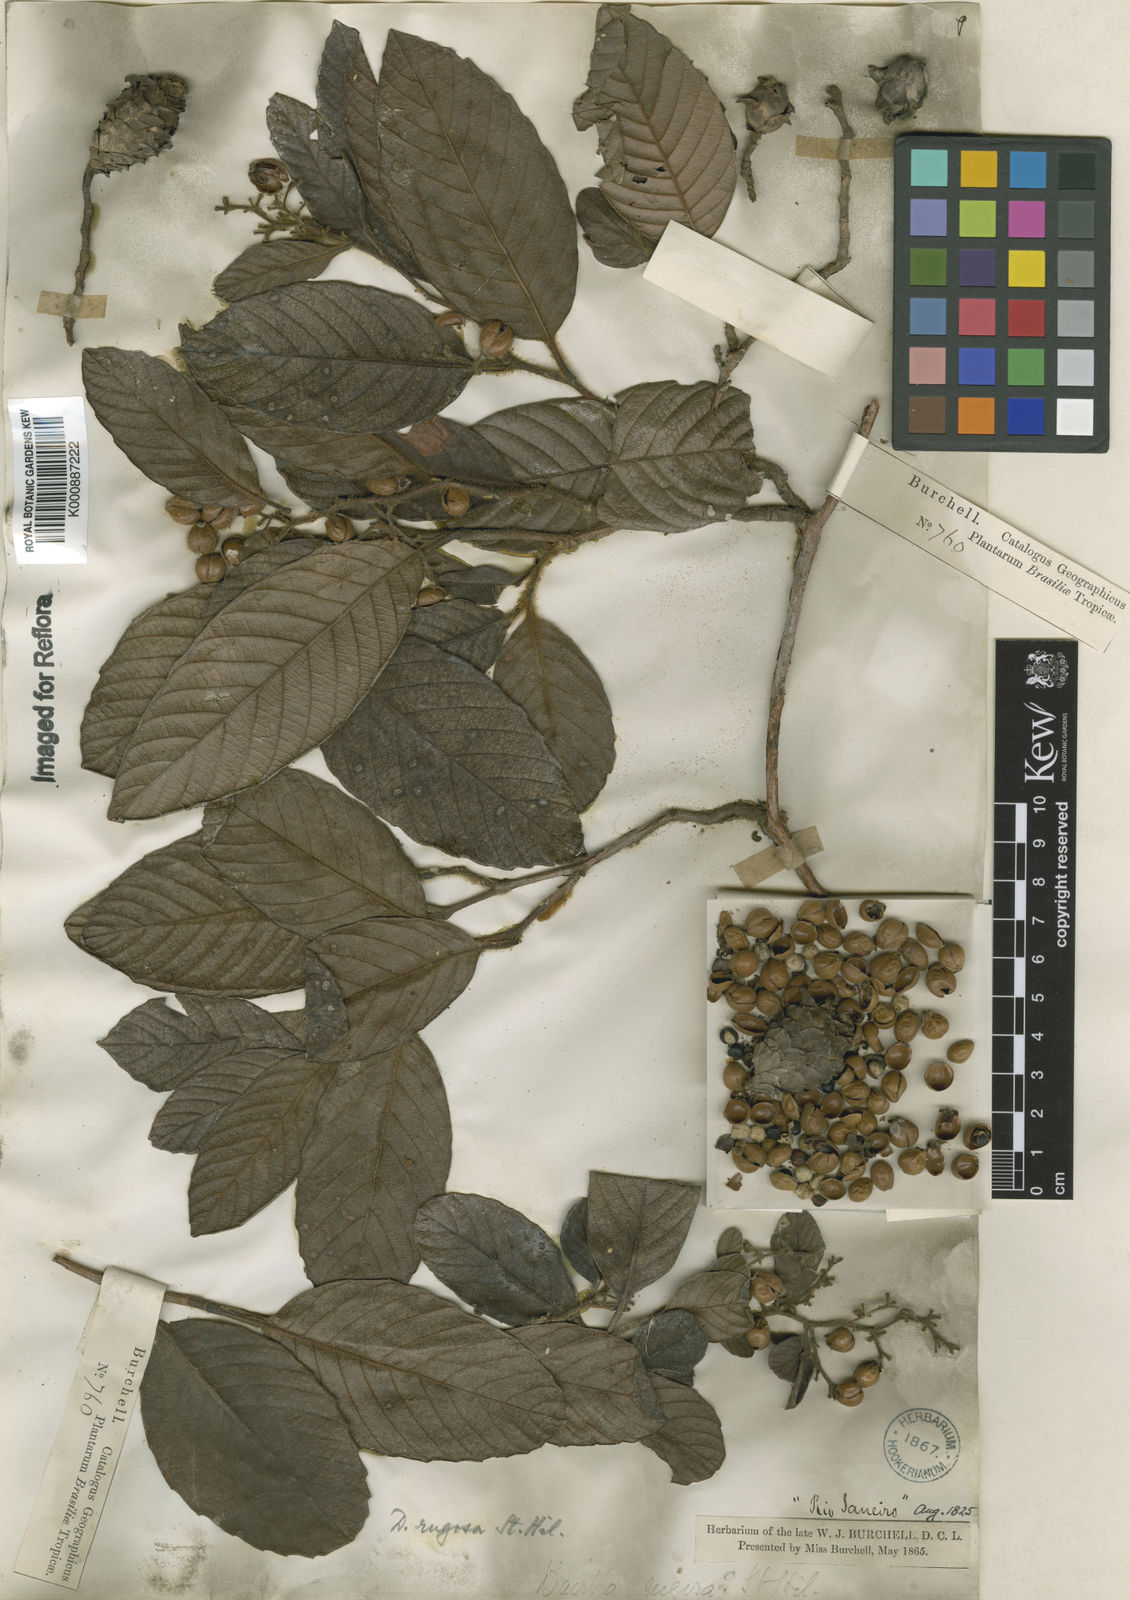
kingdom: Plantae
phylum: Tracheophyta
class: Magnoliopsida
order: Dilleniales
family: Dilleniaceae
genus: Davilla
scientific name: Davilla rugosa
